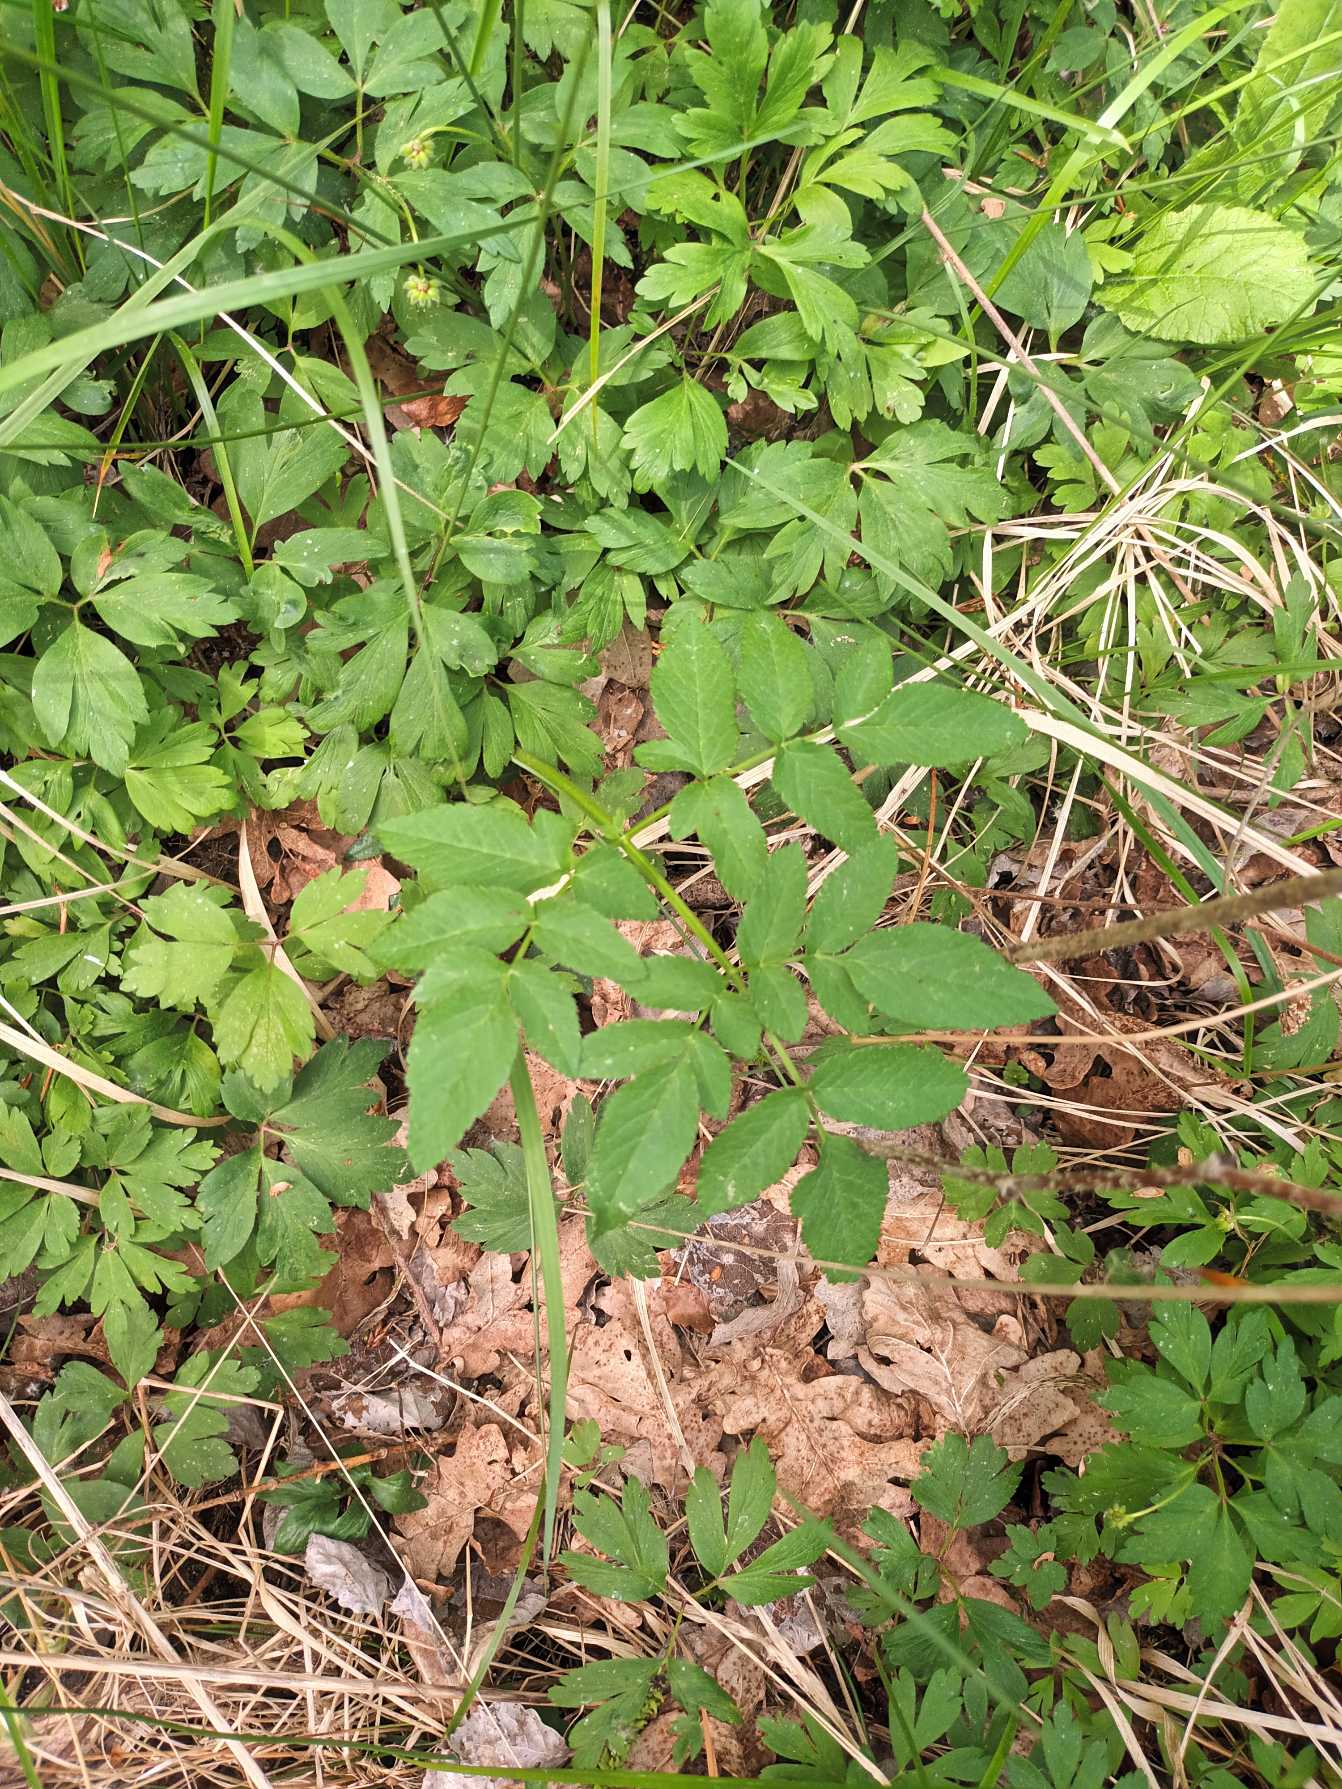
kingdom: Plantae
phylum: Tracheophyta
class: Magnoliopsida
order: Apiales
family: Apiaceae
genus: Angelica
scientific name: Angelica sylvestris
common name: Angelik
